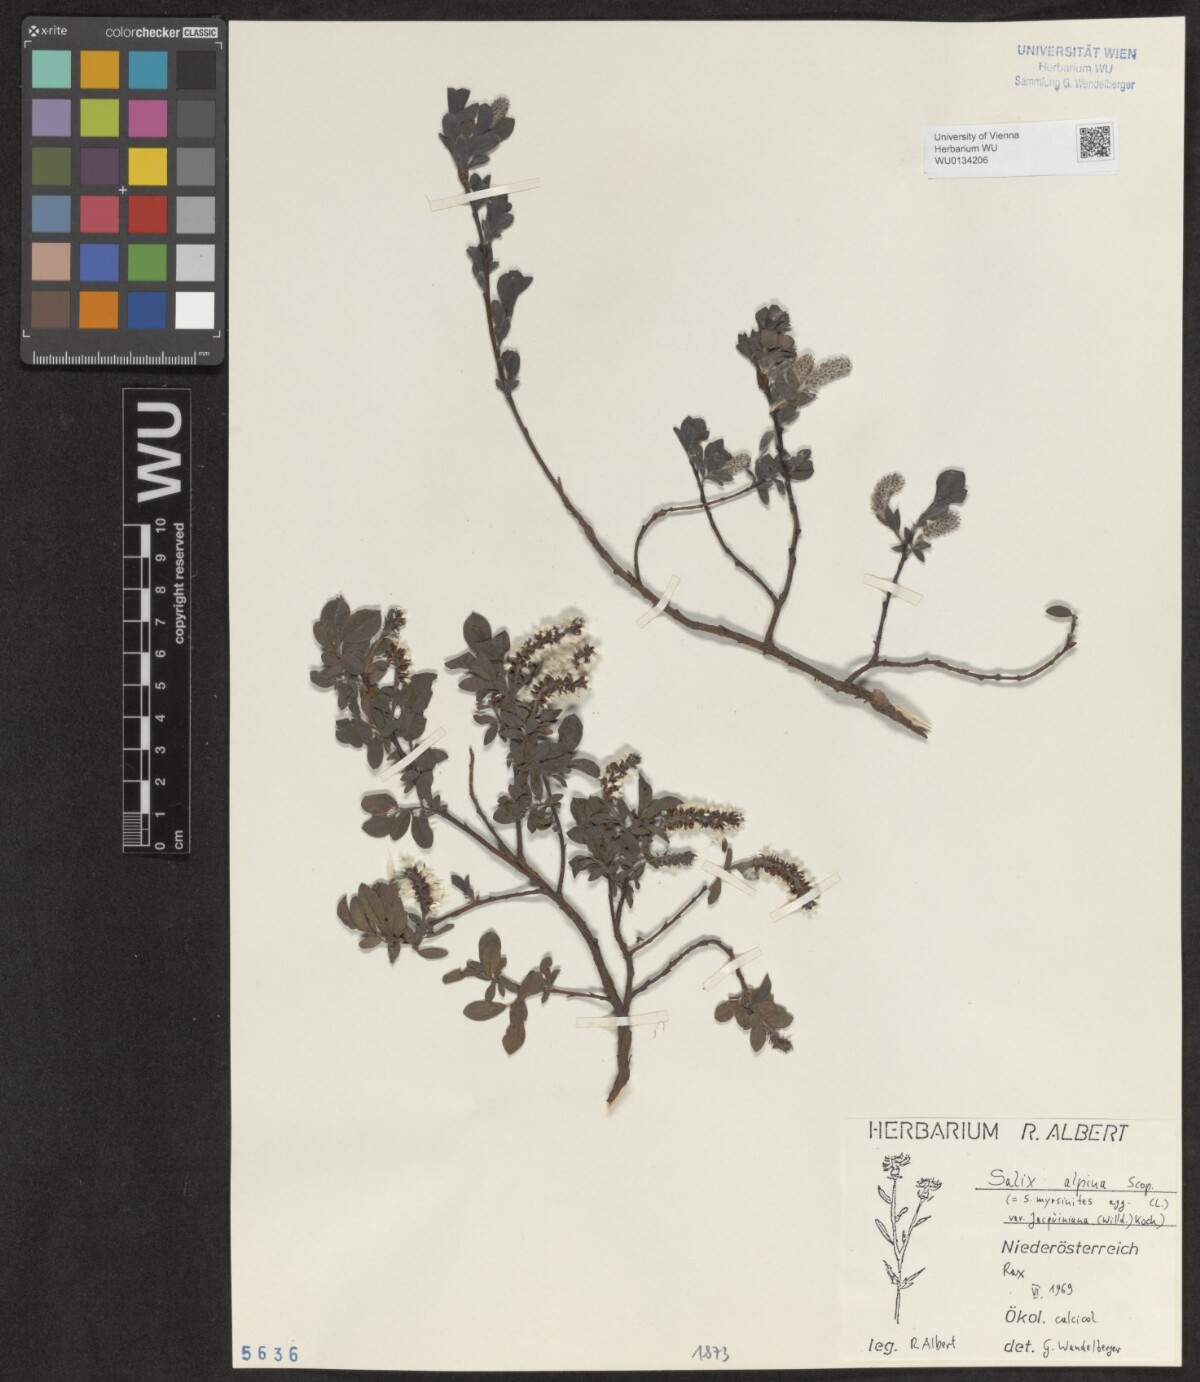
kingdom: Plantae
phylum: Tracheophyta
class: Magnoliopsida
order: Malpighiales
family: Salicaceae
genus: Salix
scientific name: Salix alpina
